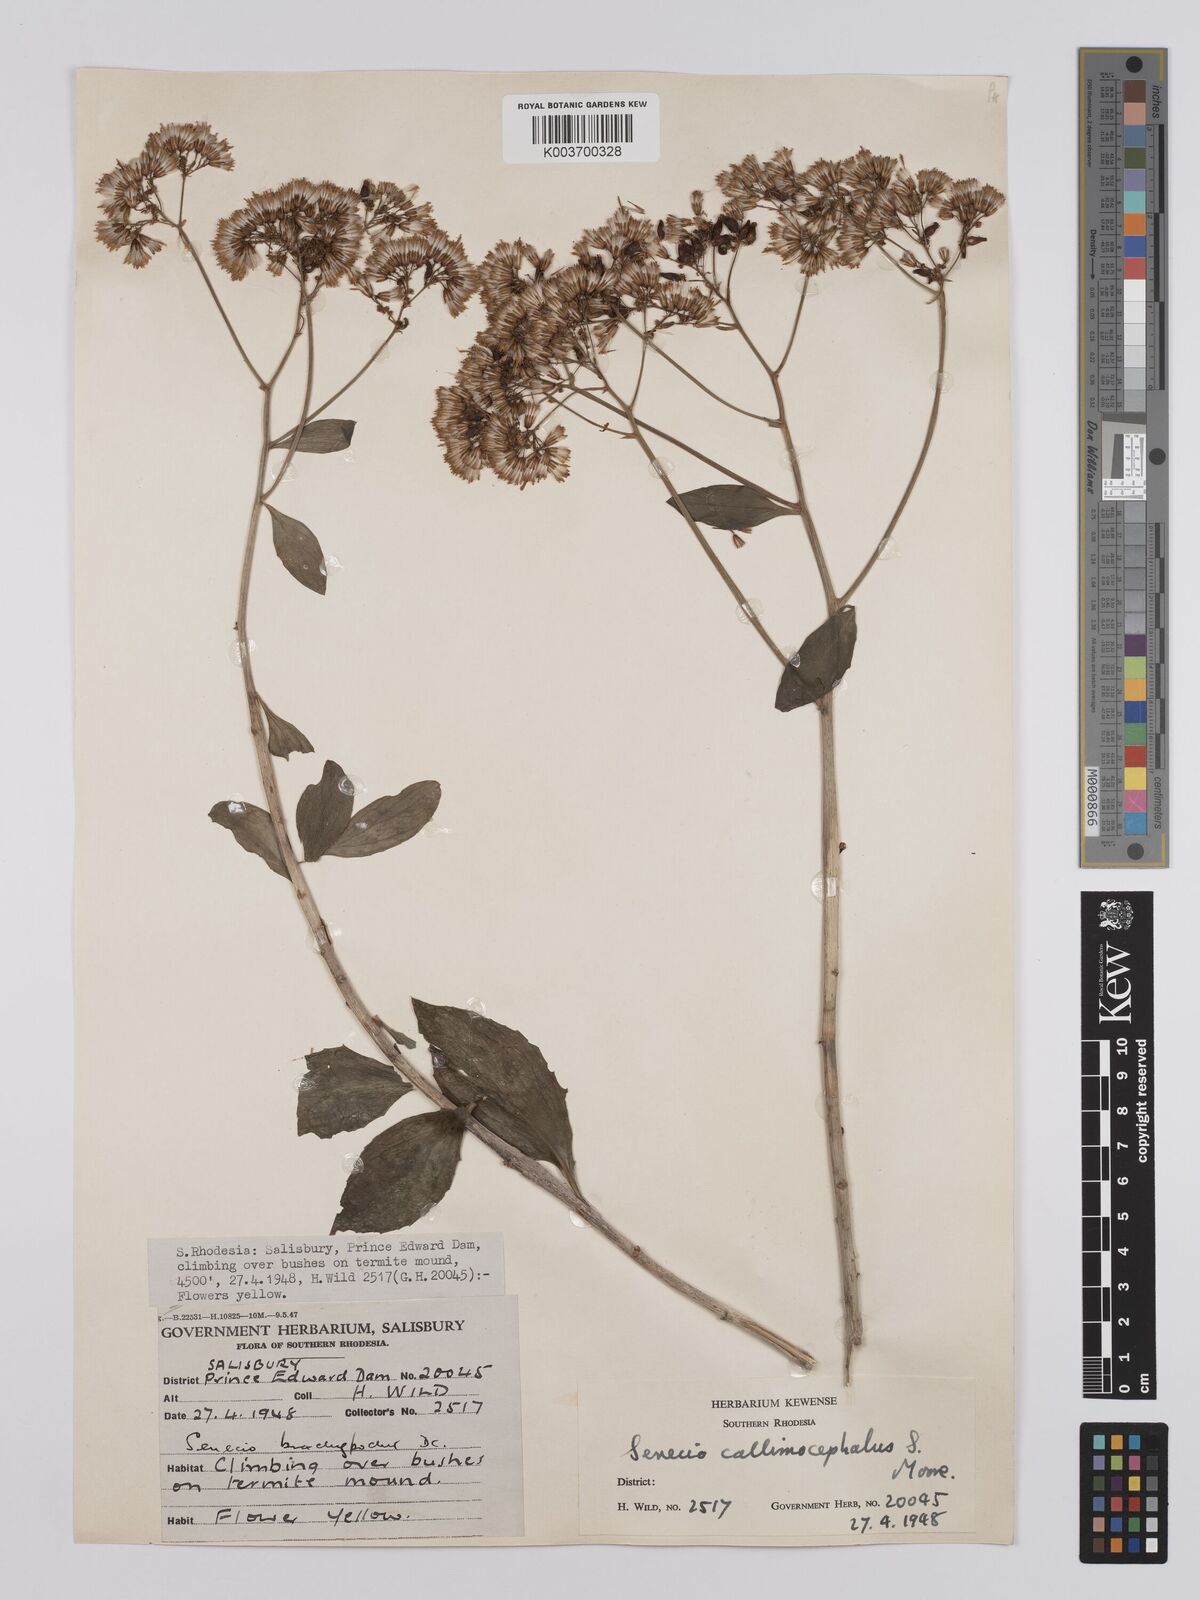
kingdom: Plantae
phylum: Tracheophyta
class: Magnoliopsida
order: Asterales
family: Asteraceae
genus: Senecio
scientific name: Senecio brachypodus
